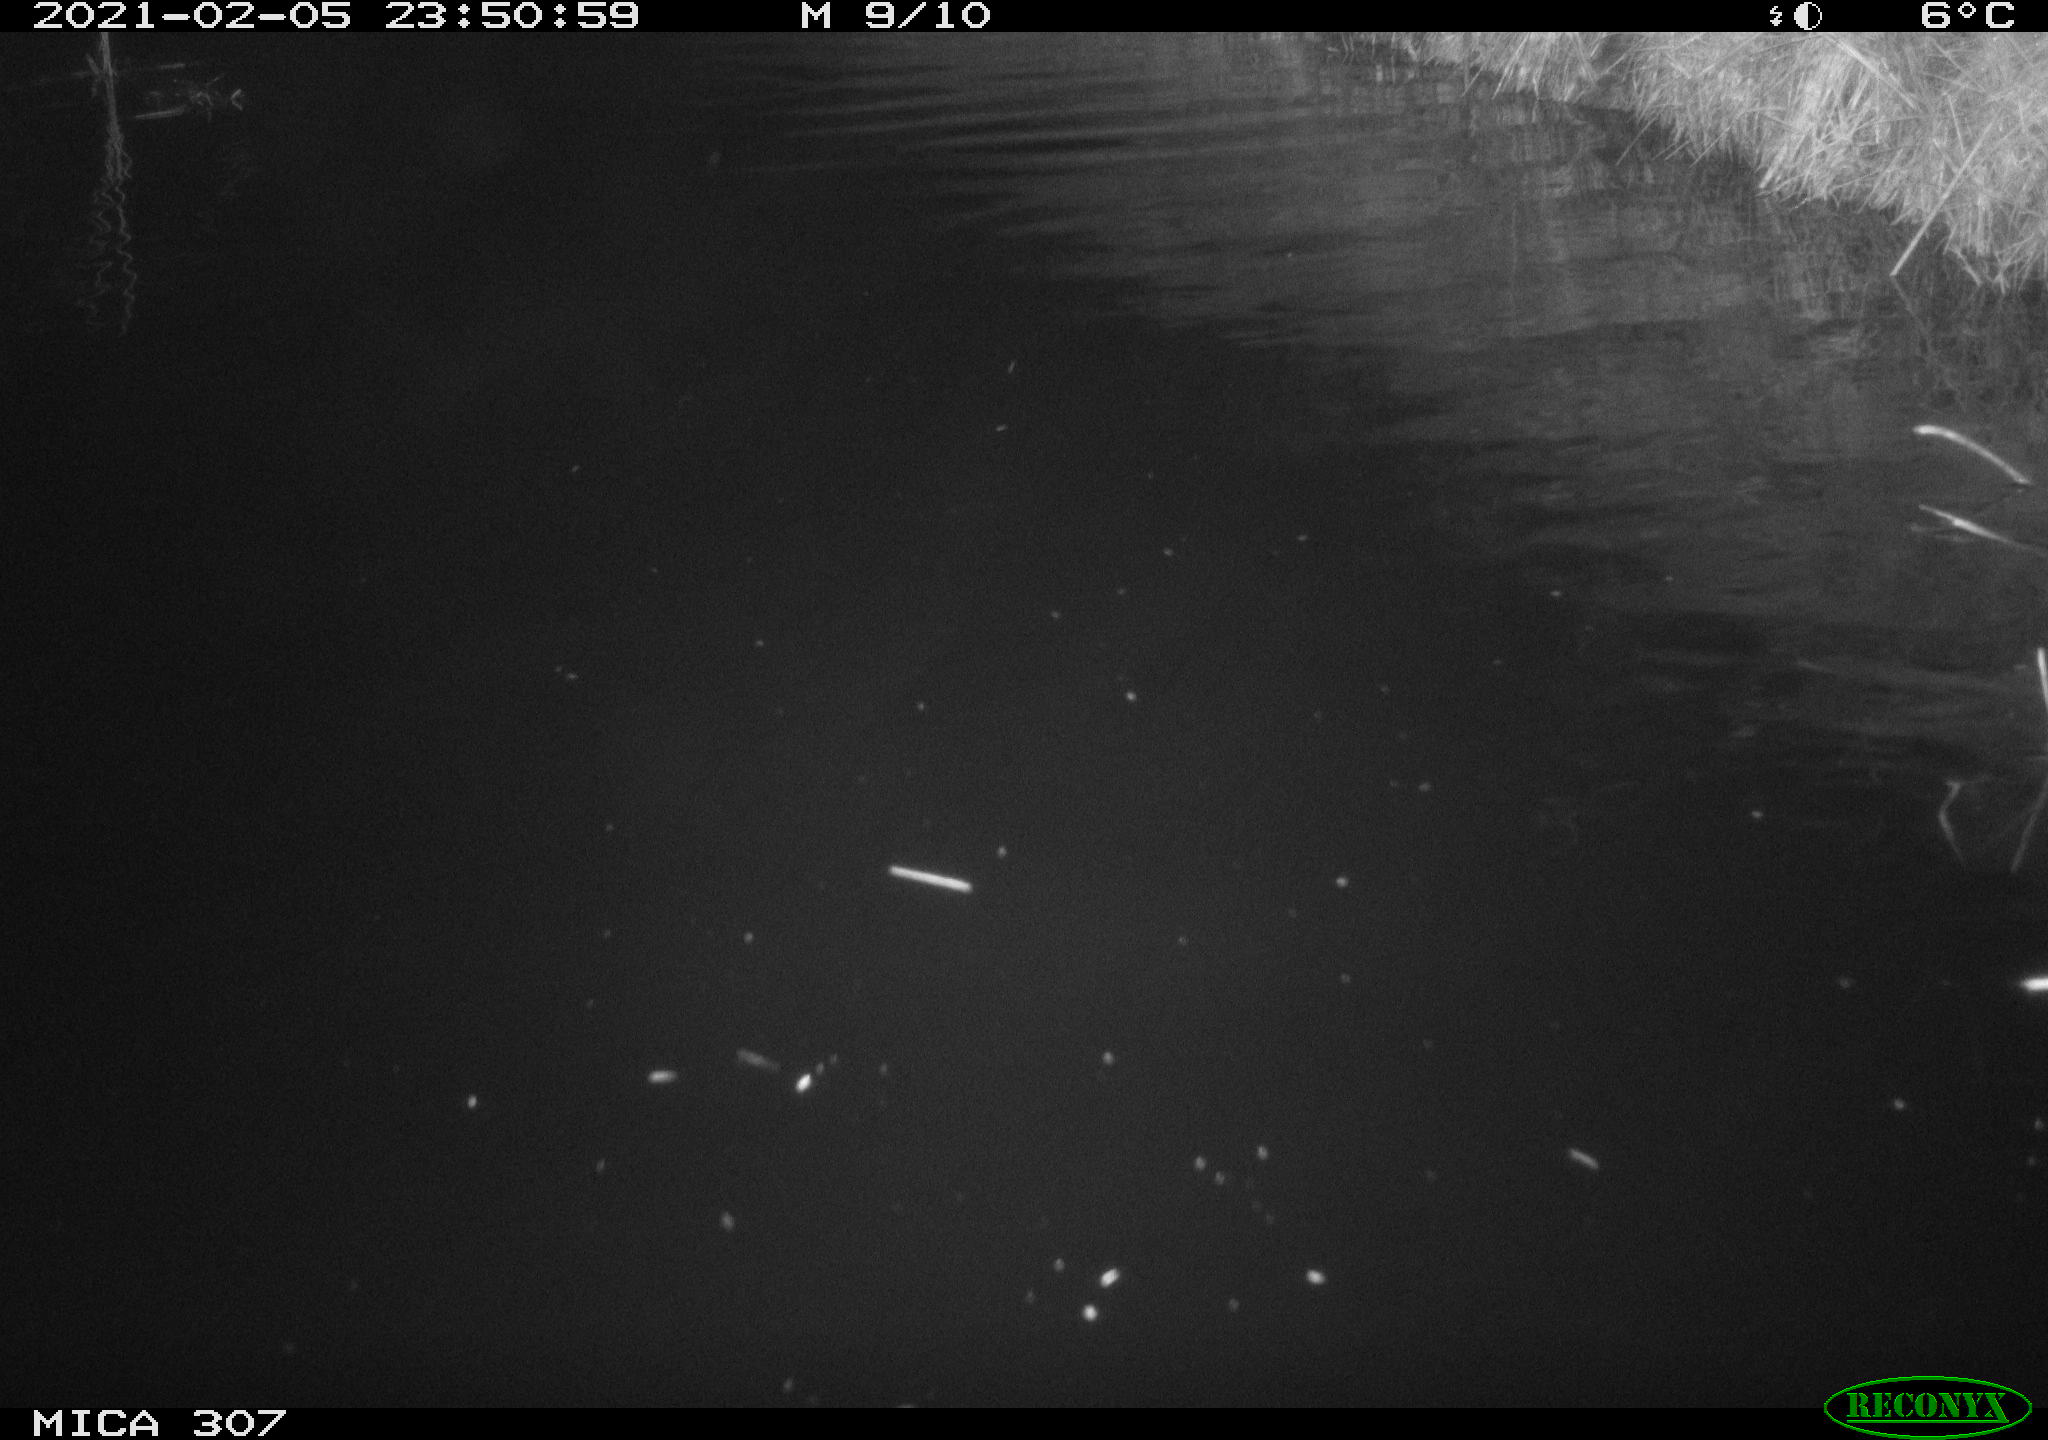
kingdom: Animalia
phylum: Chordata
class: Mammalia
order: Rodentia
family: Cricetidae
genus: Ondatra
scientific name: Ondatra zibethicus
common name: Muskrat
